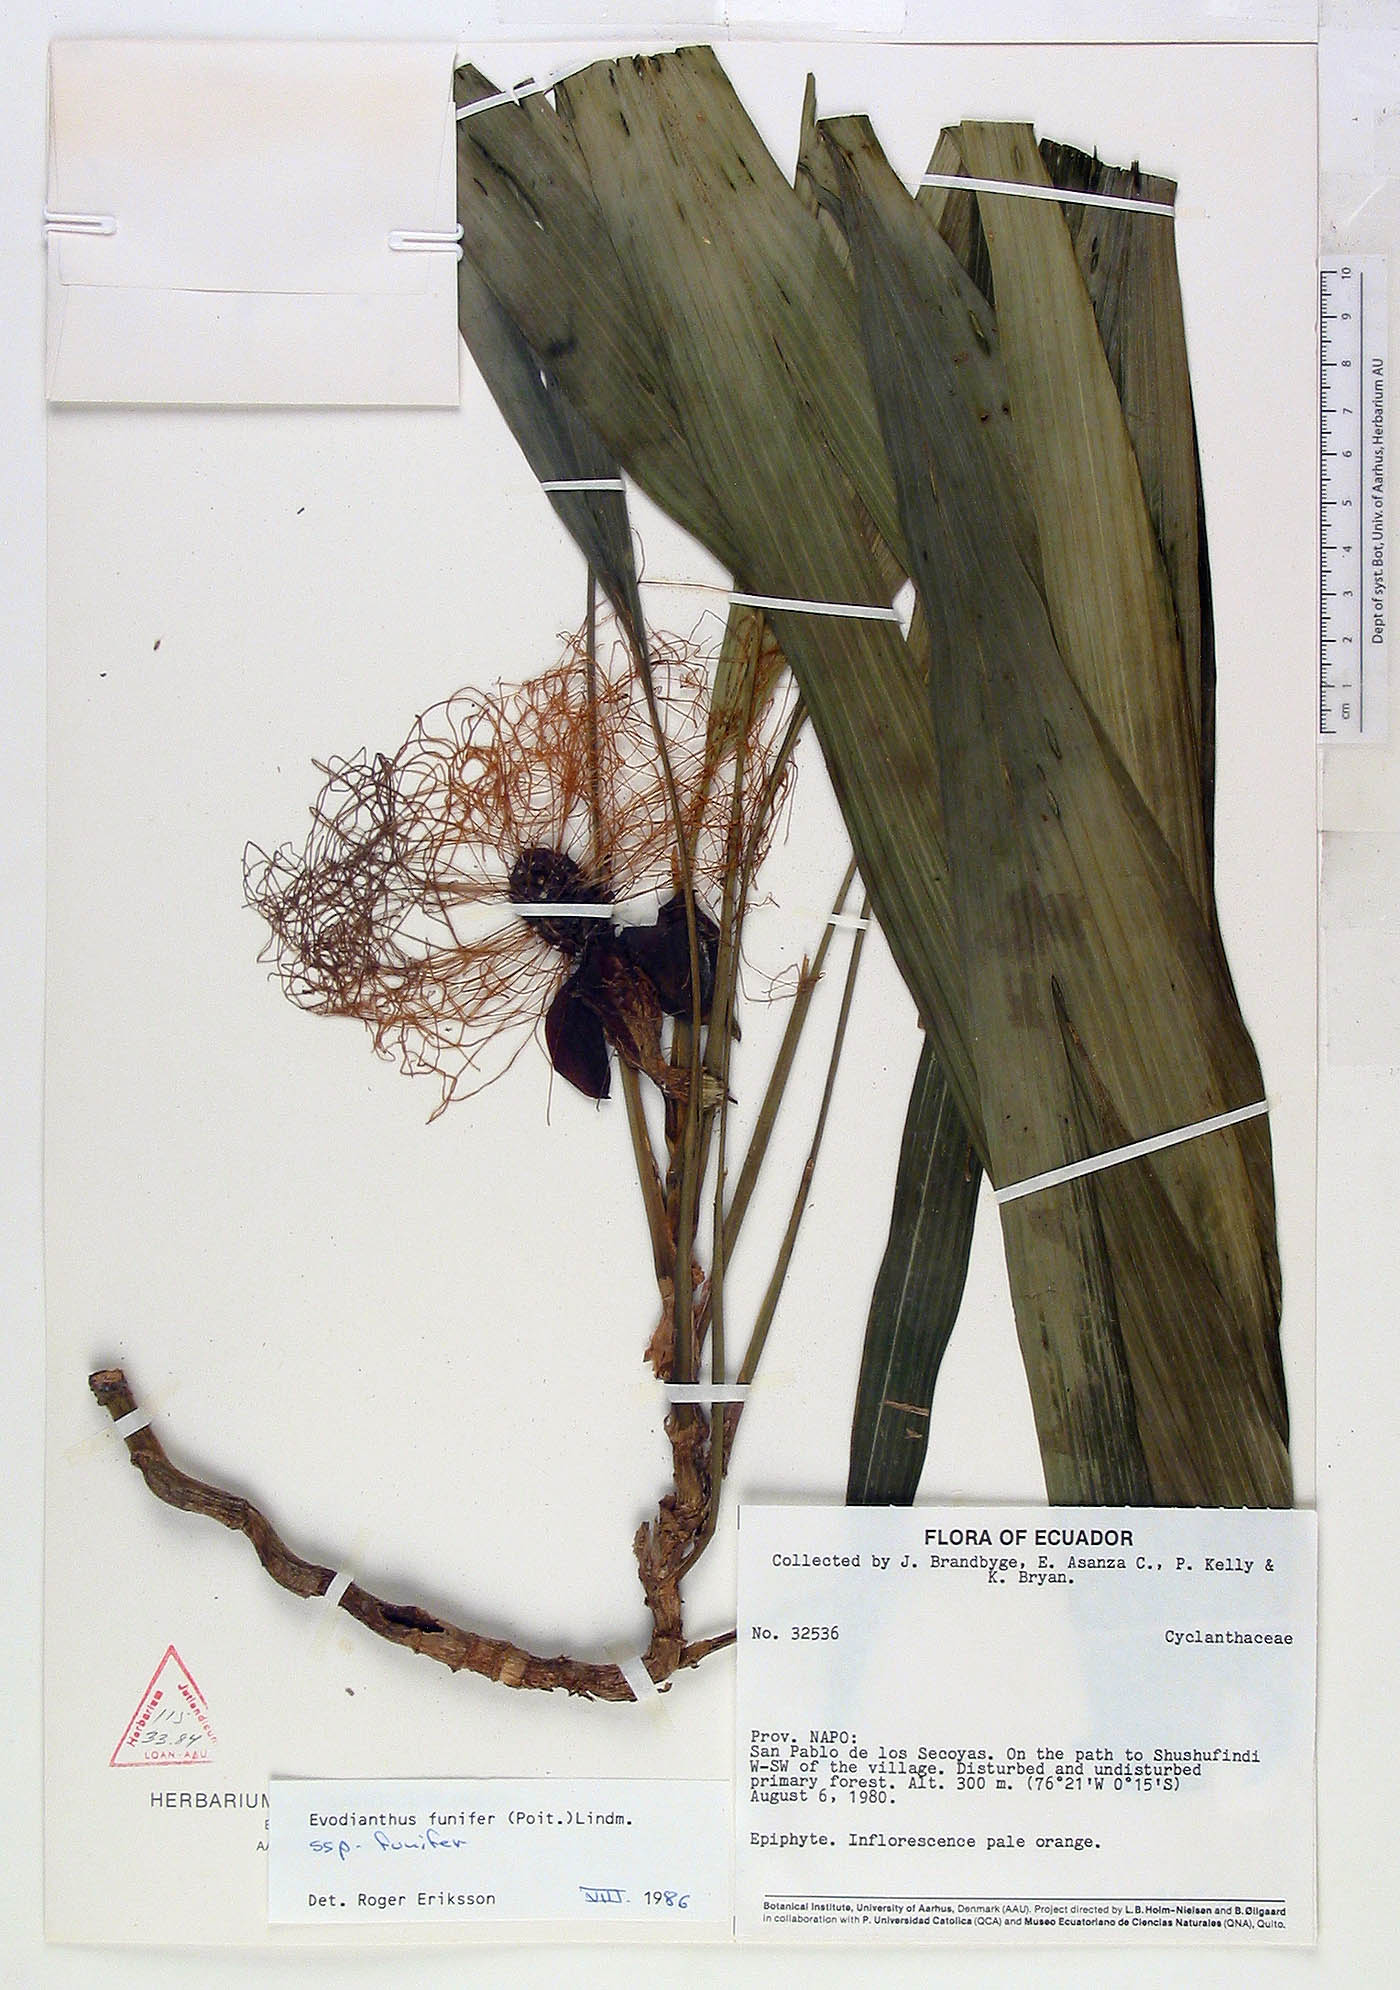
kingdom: Plantae
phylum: Tracheophyta
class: Liliopsida
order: Pandanales
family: Cyclanthaceae
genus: Evodianthus
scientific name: Evodianthus funifer
